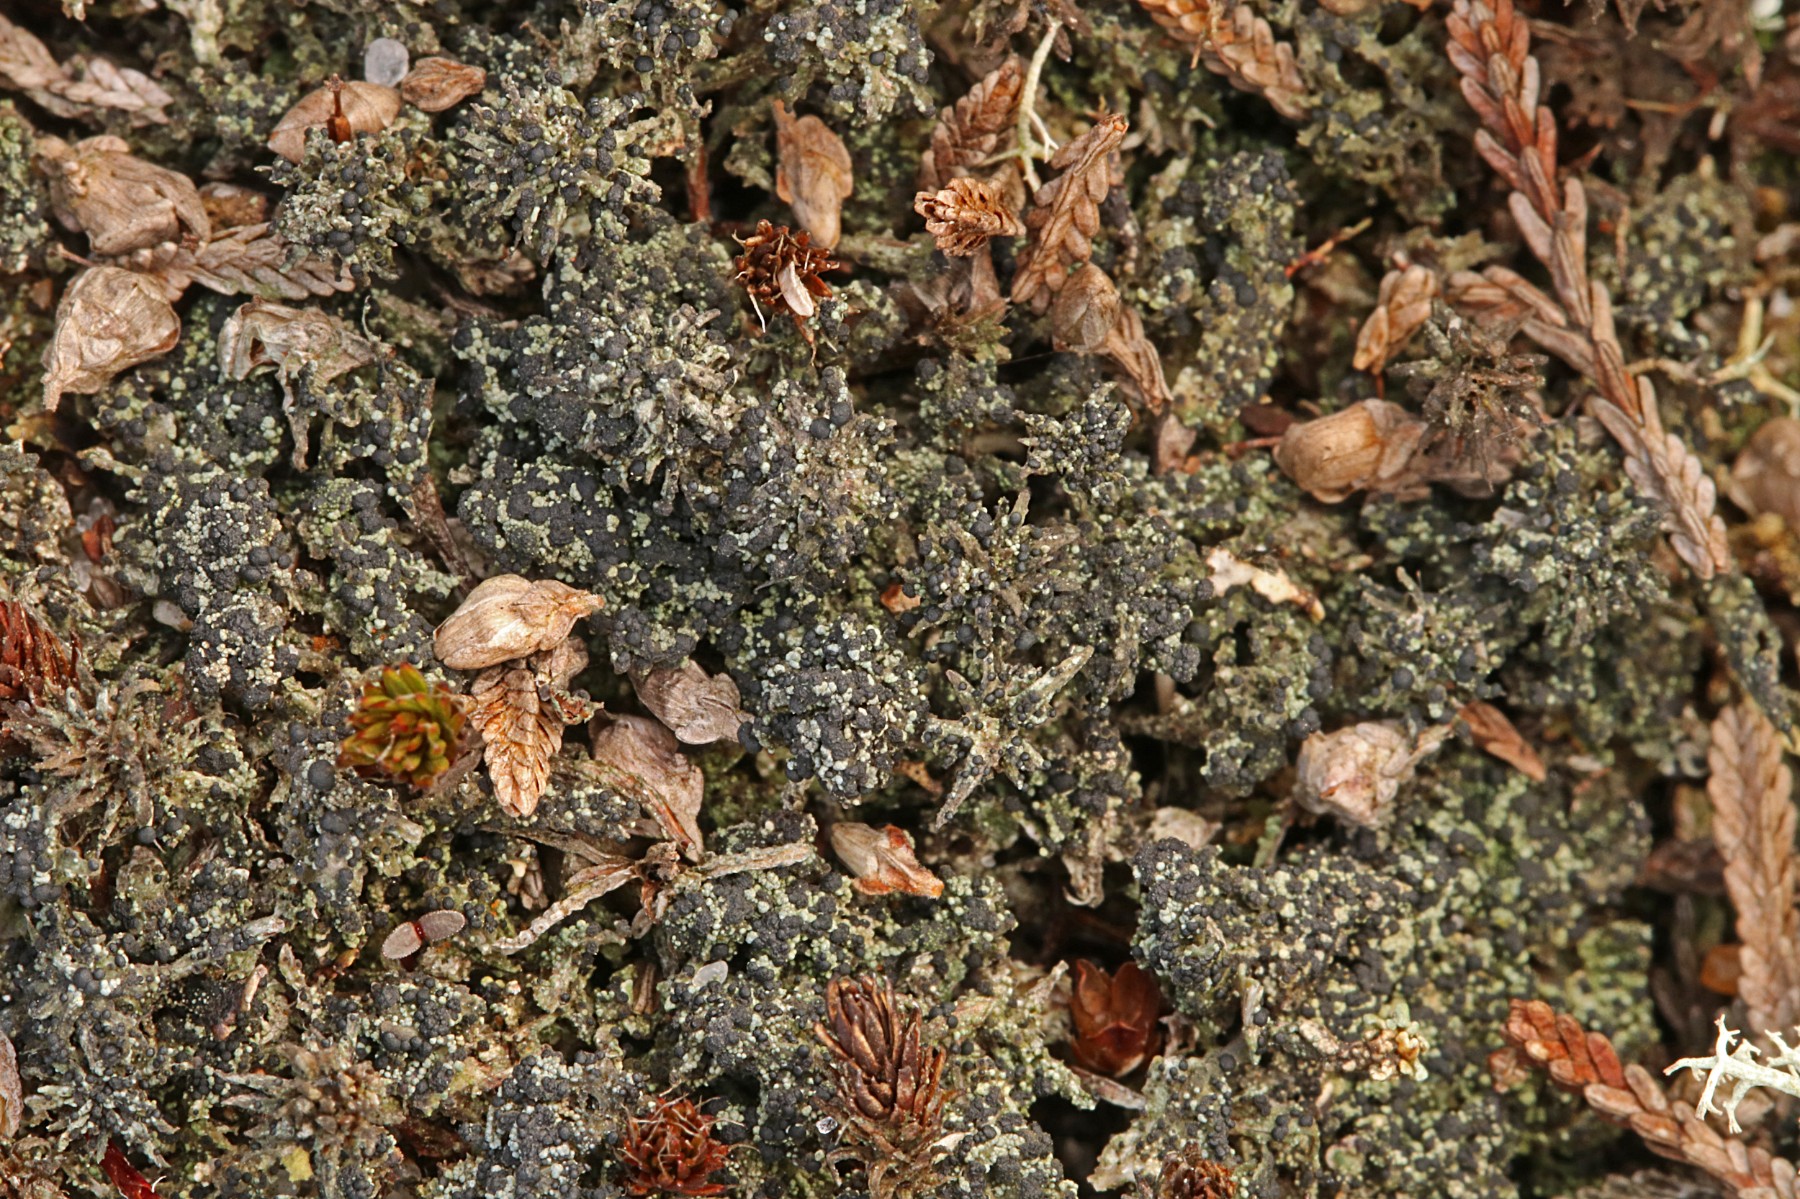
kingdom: Fungi
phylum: Ascomycota
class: Lecanoromycetes
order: Lecanorales
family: Byssolomataceae
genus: Micarea
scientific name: Micarea lignaria
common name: tørve-knaplav
